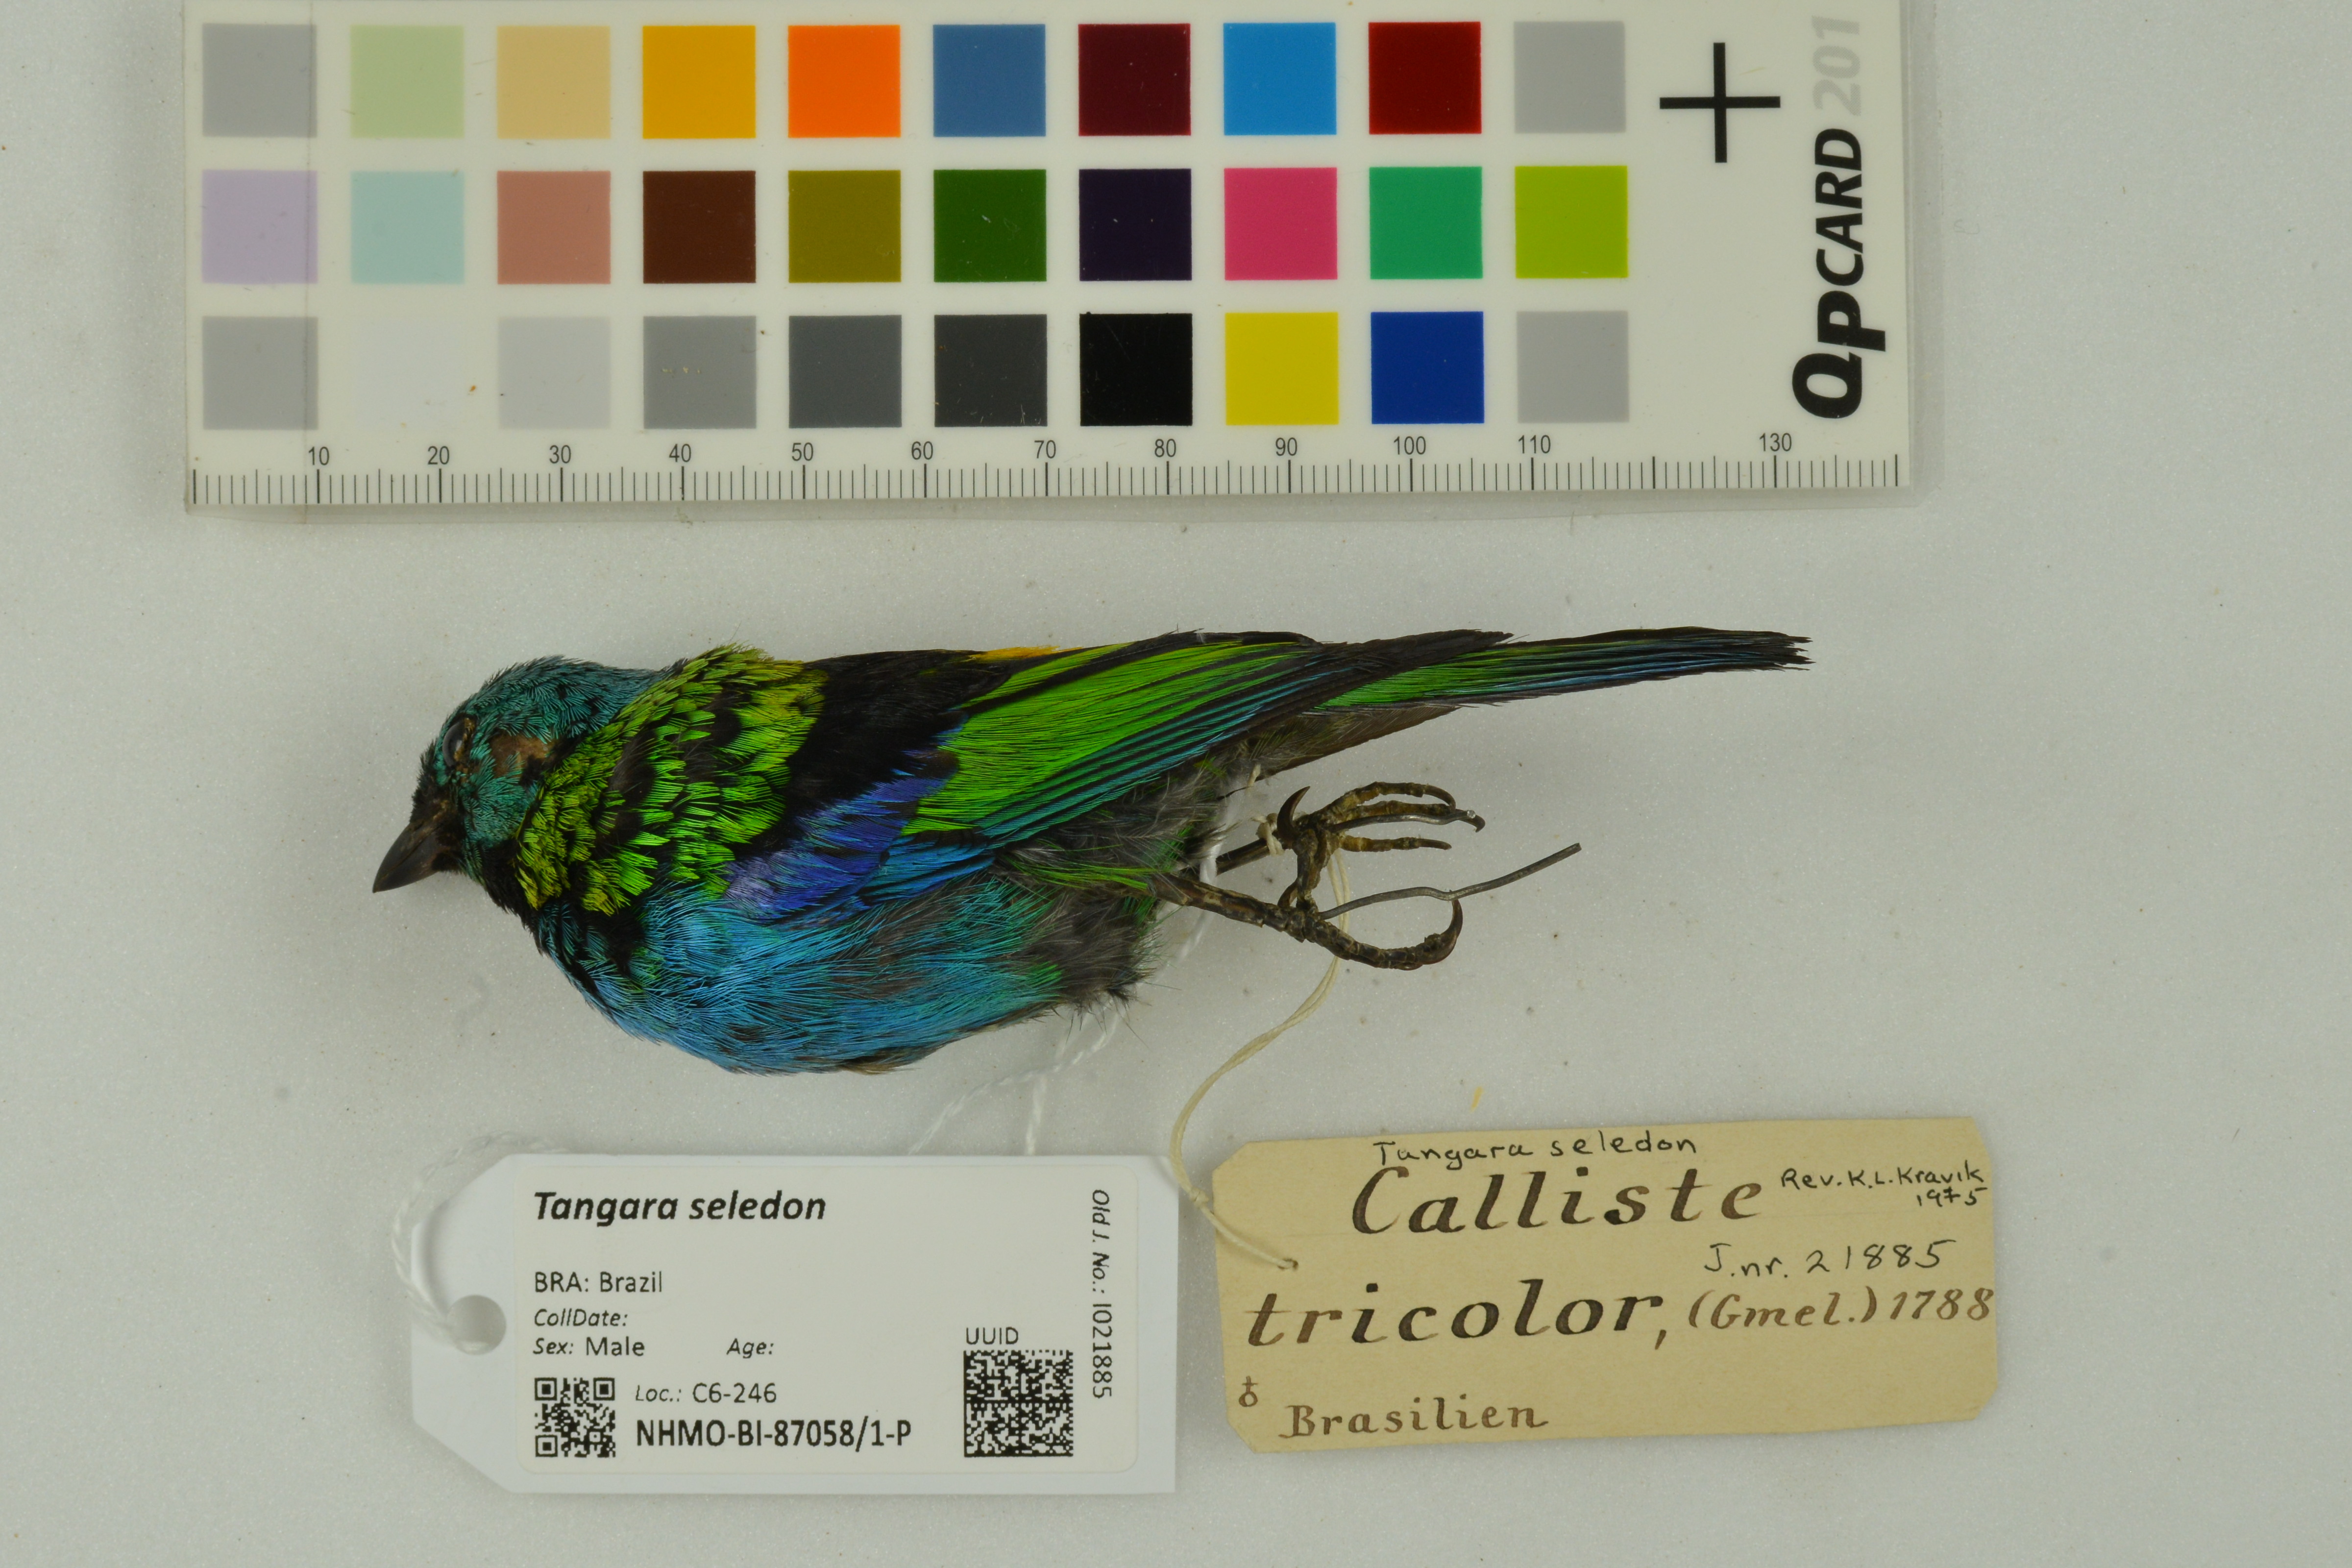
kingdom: Animalia
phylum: Chordata
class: Aves
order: Passeriformes
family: Thraupidae
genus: Tangara
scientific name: Tangara seledon
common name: Green-headed tanager
